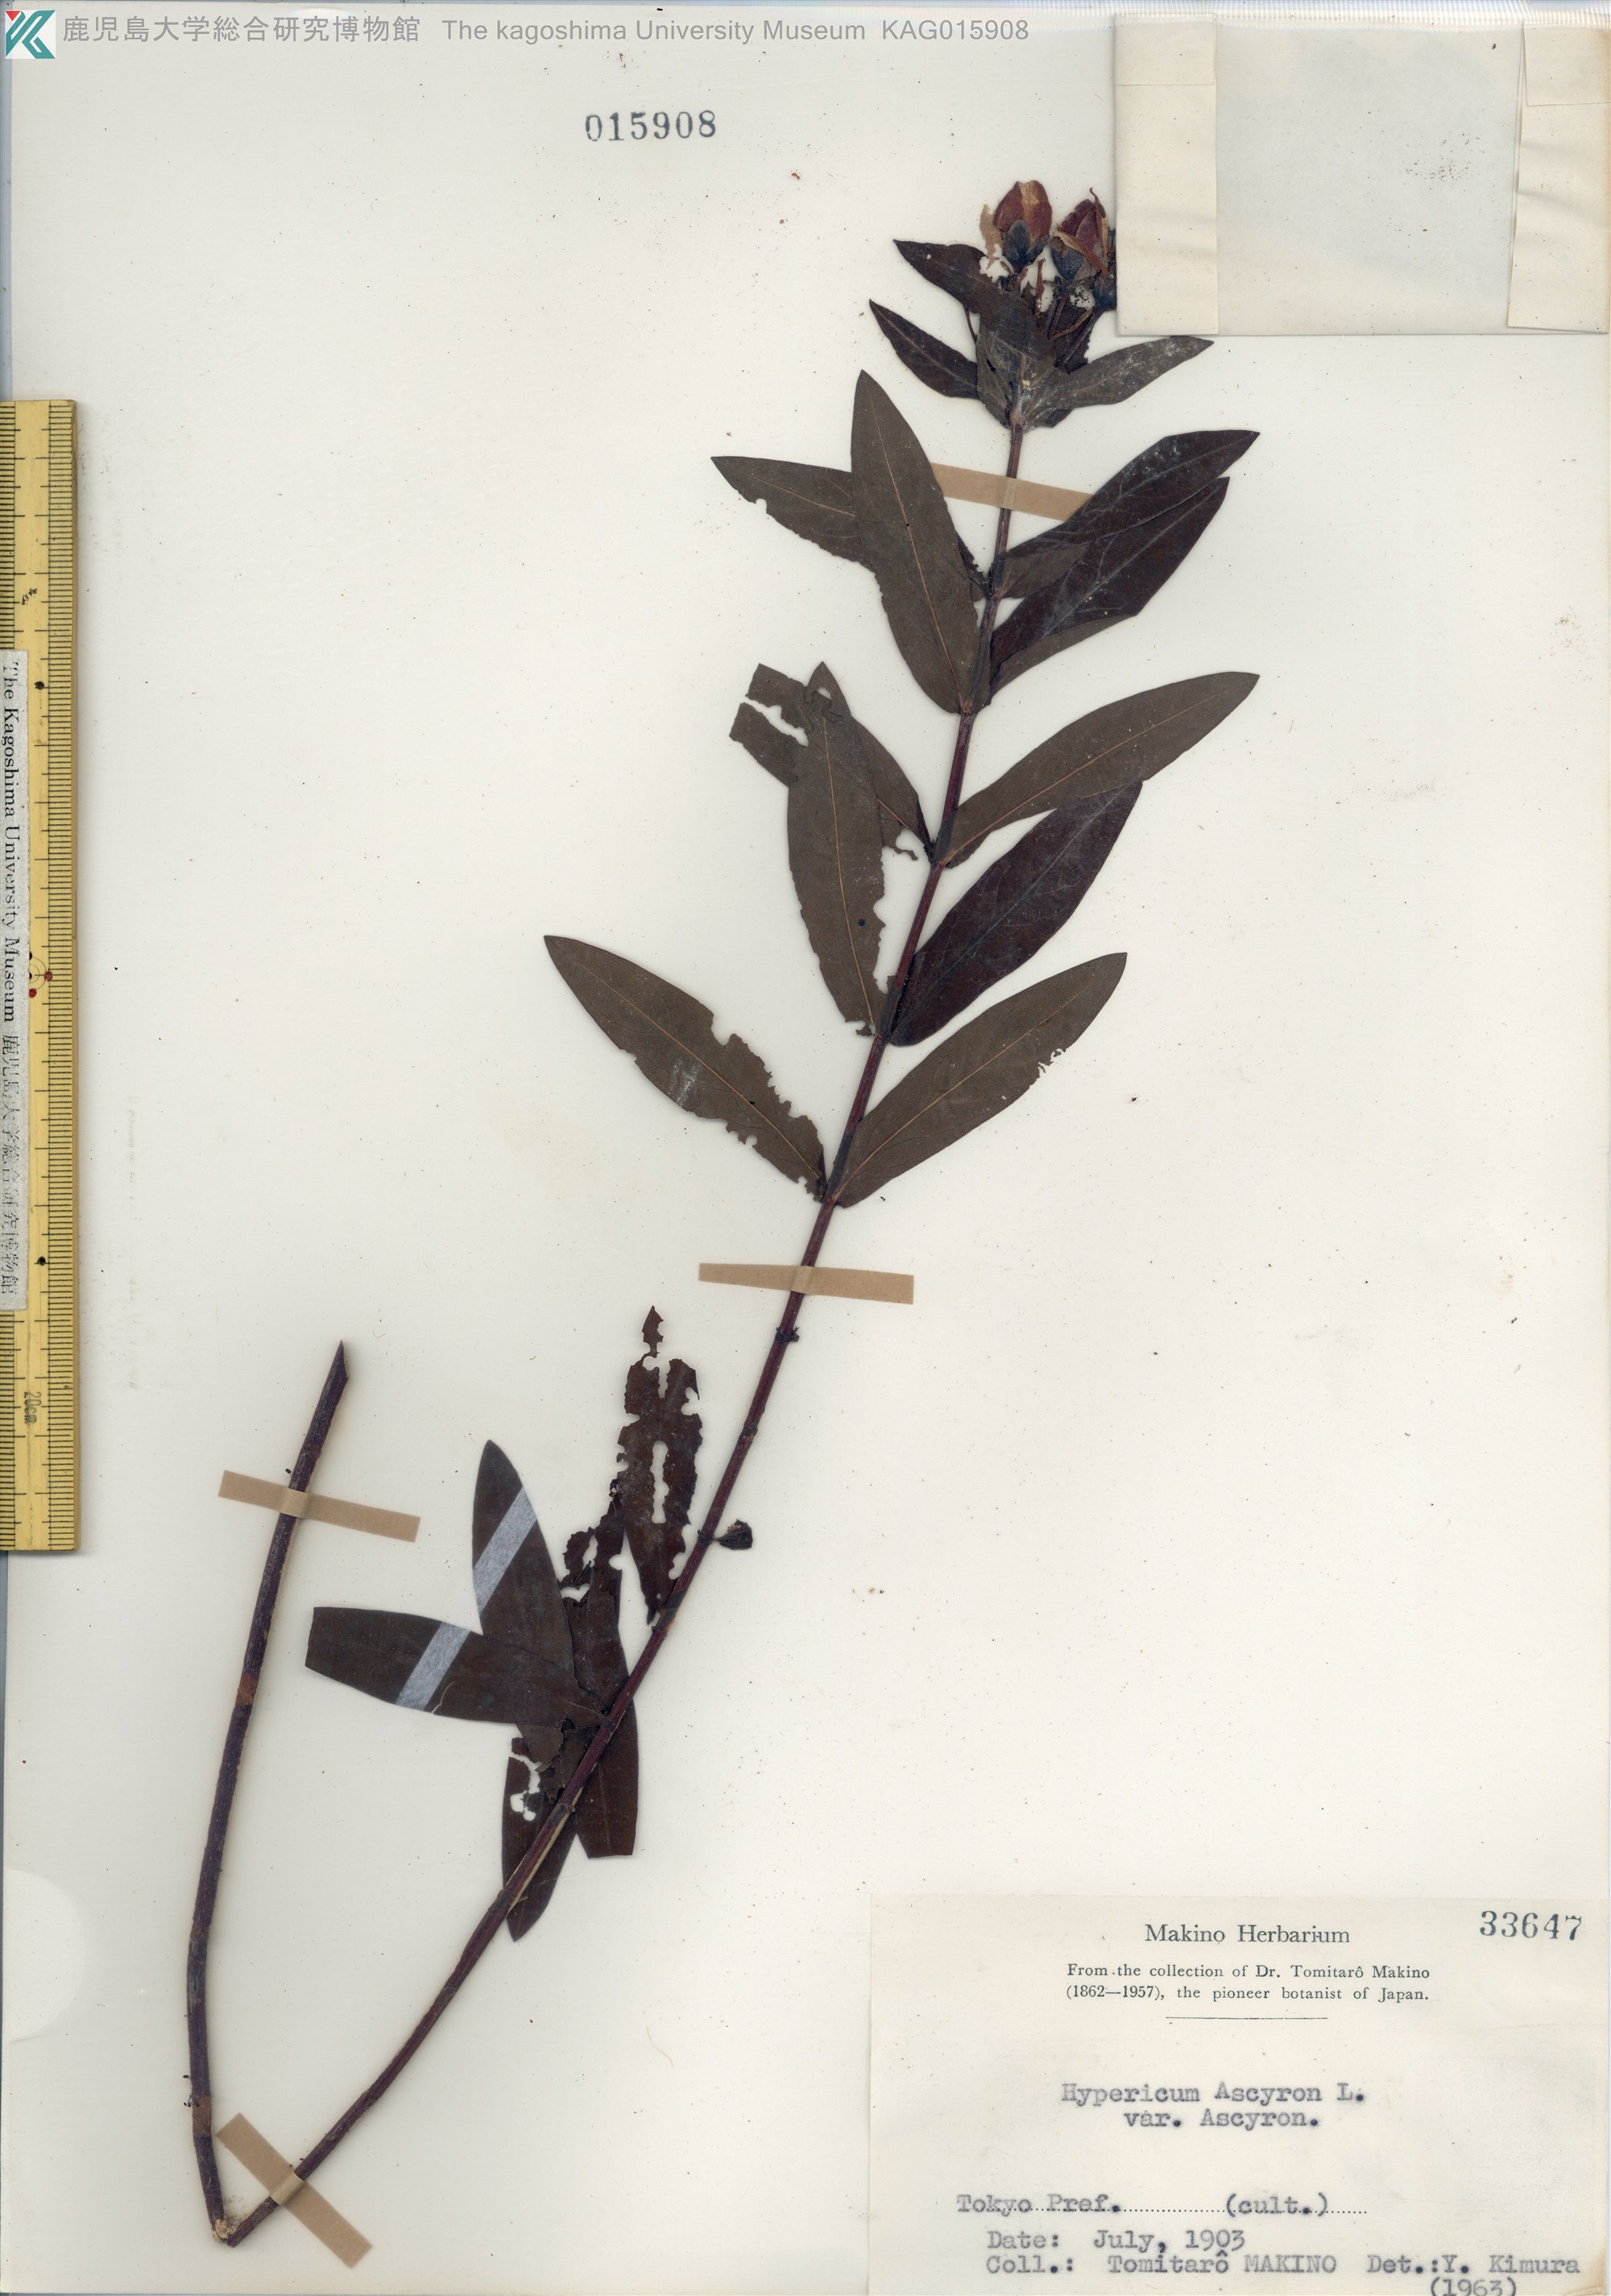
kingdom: Plantae
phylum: Tracheophyta
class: Magnoliopsida
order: Malpighiales
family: Hypericaceae
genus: Hypericum
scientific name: Hypericum ascyron
